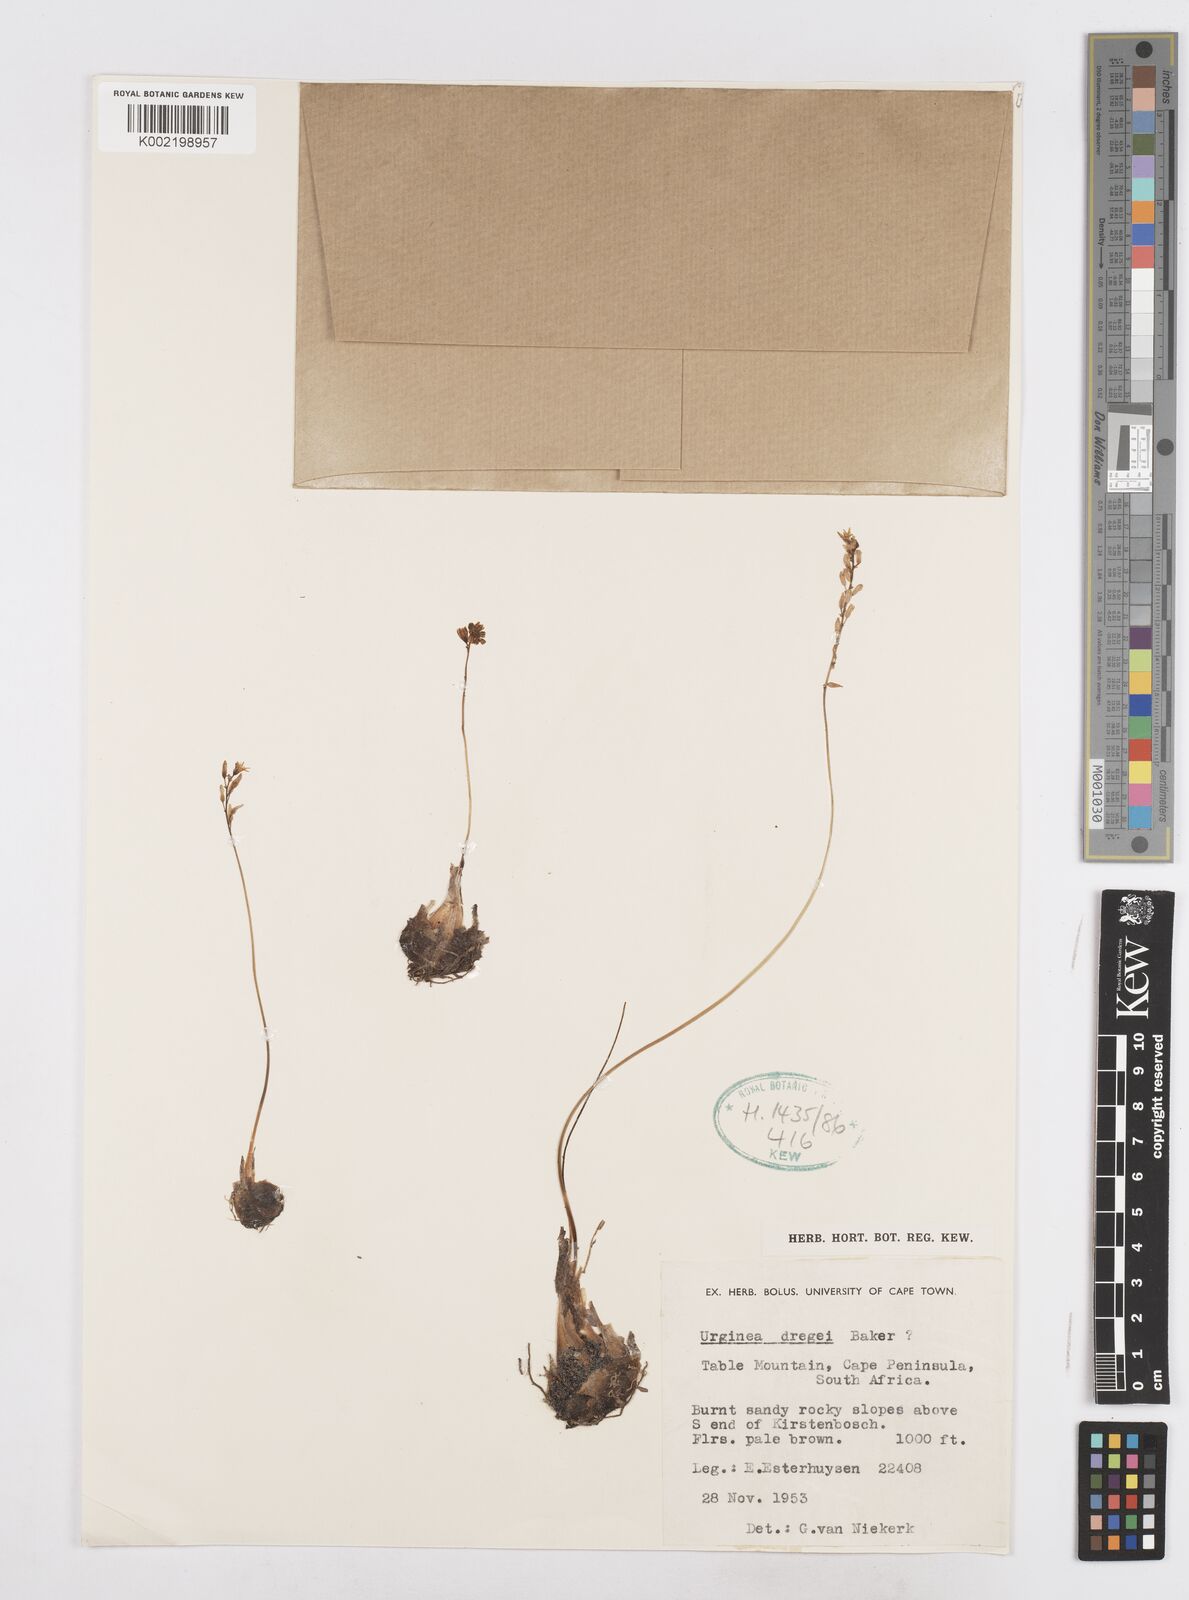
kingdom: Plantae
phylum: Tracheophyta
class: Liliopsida
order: Asparagales
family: Asparagaceae
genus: Drimia
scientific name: Drimia dregei
